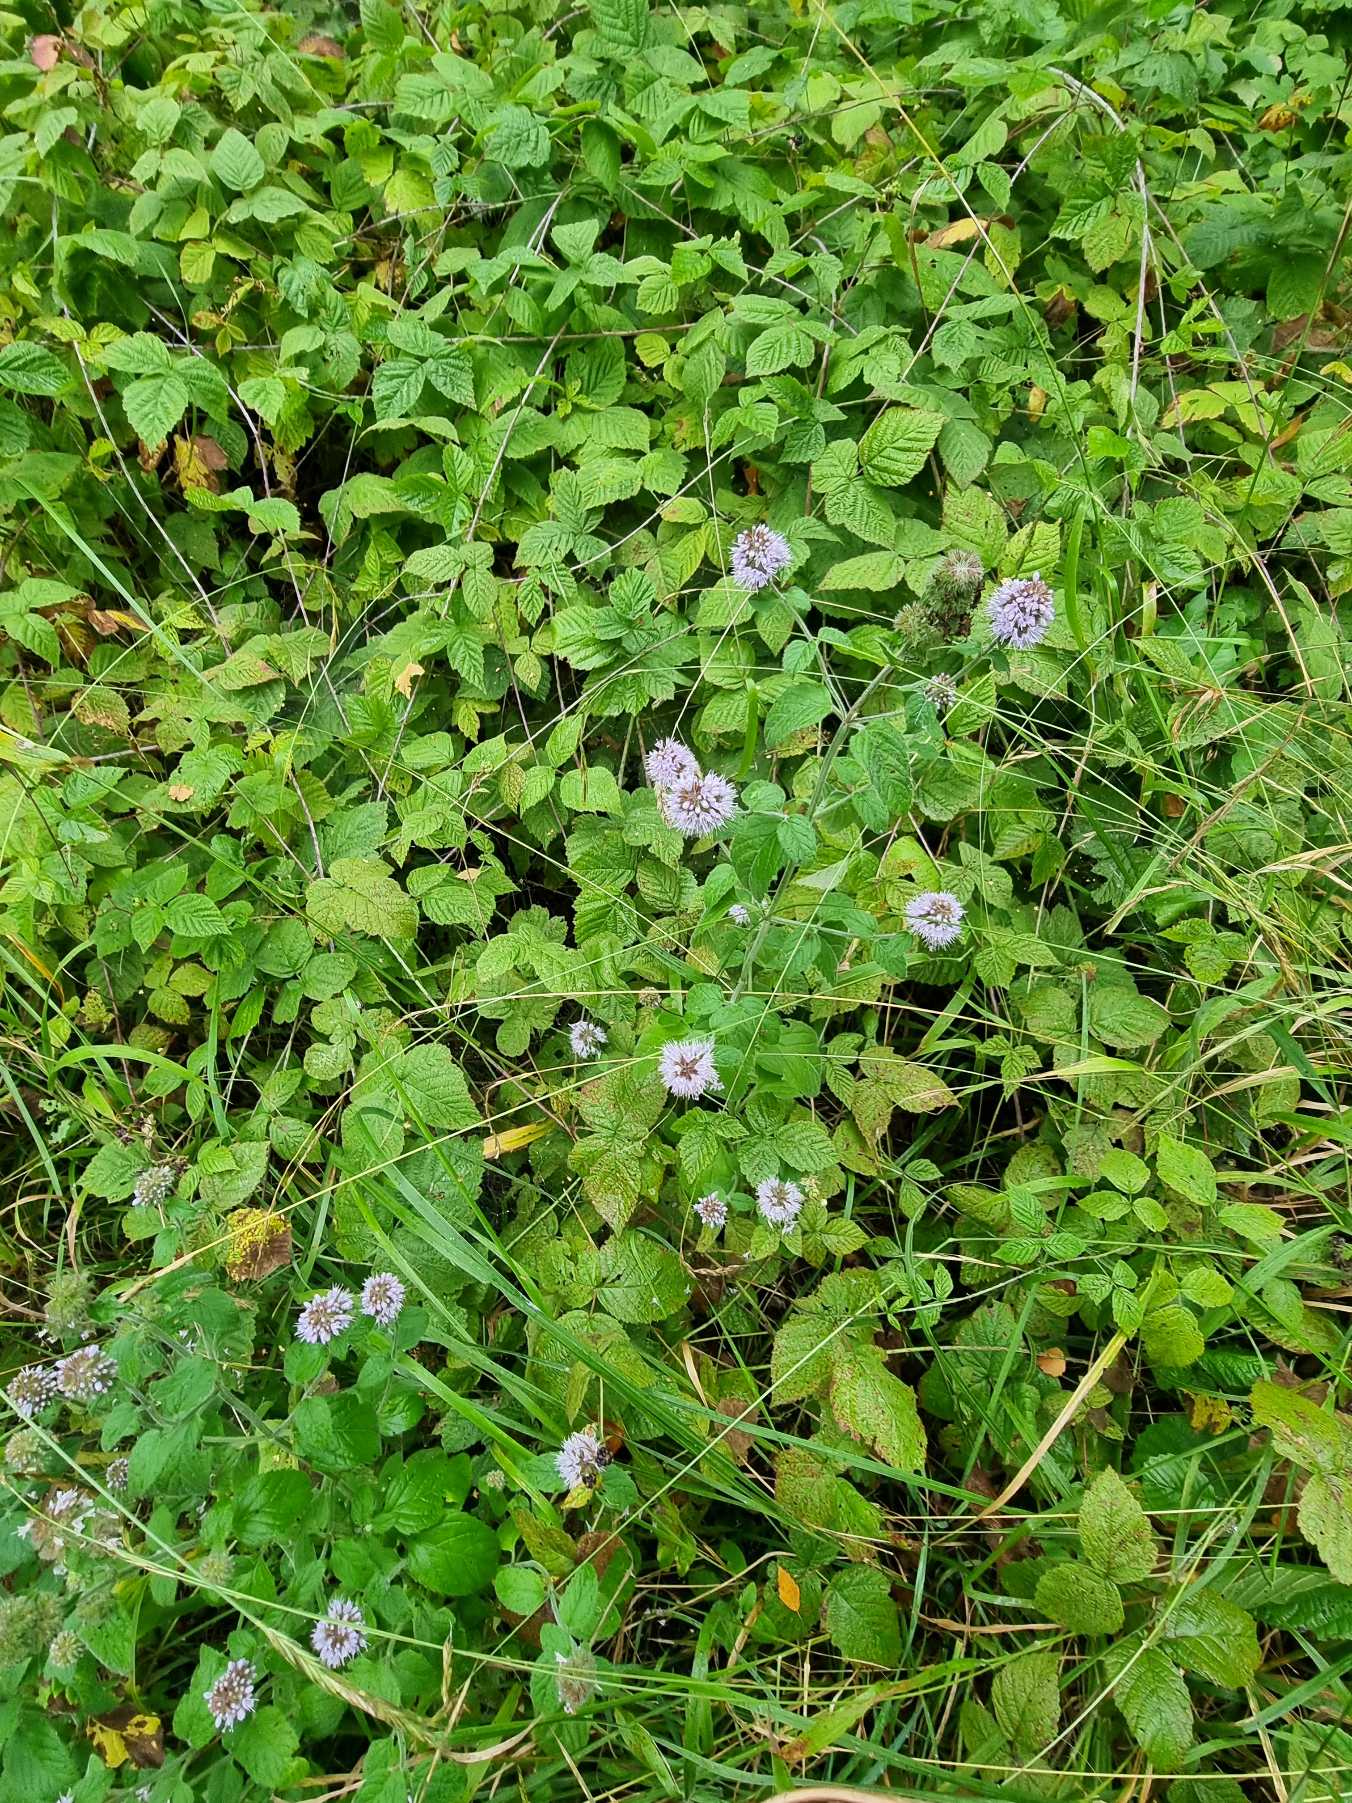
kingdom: Plantae
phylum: Tracheophyta
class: Magnoliopsida
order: Lamiales
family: Lamiaceae
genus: Mentha
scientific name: Mentha aquatica
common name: Vand-mynte
